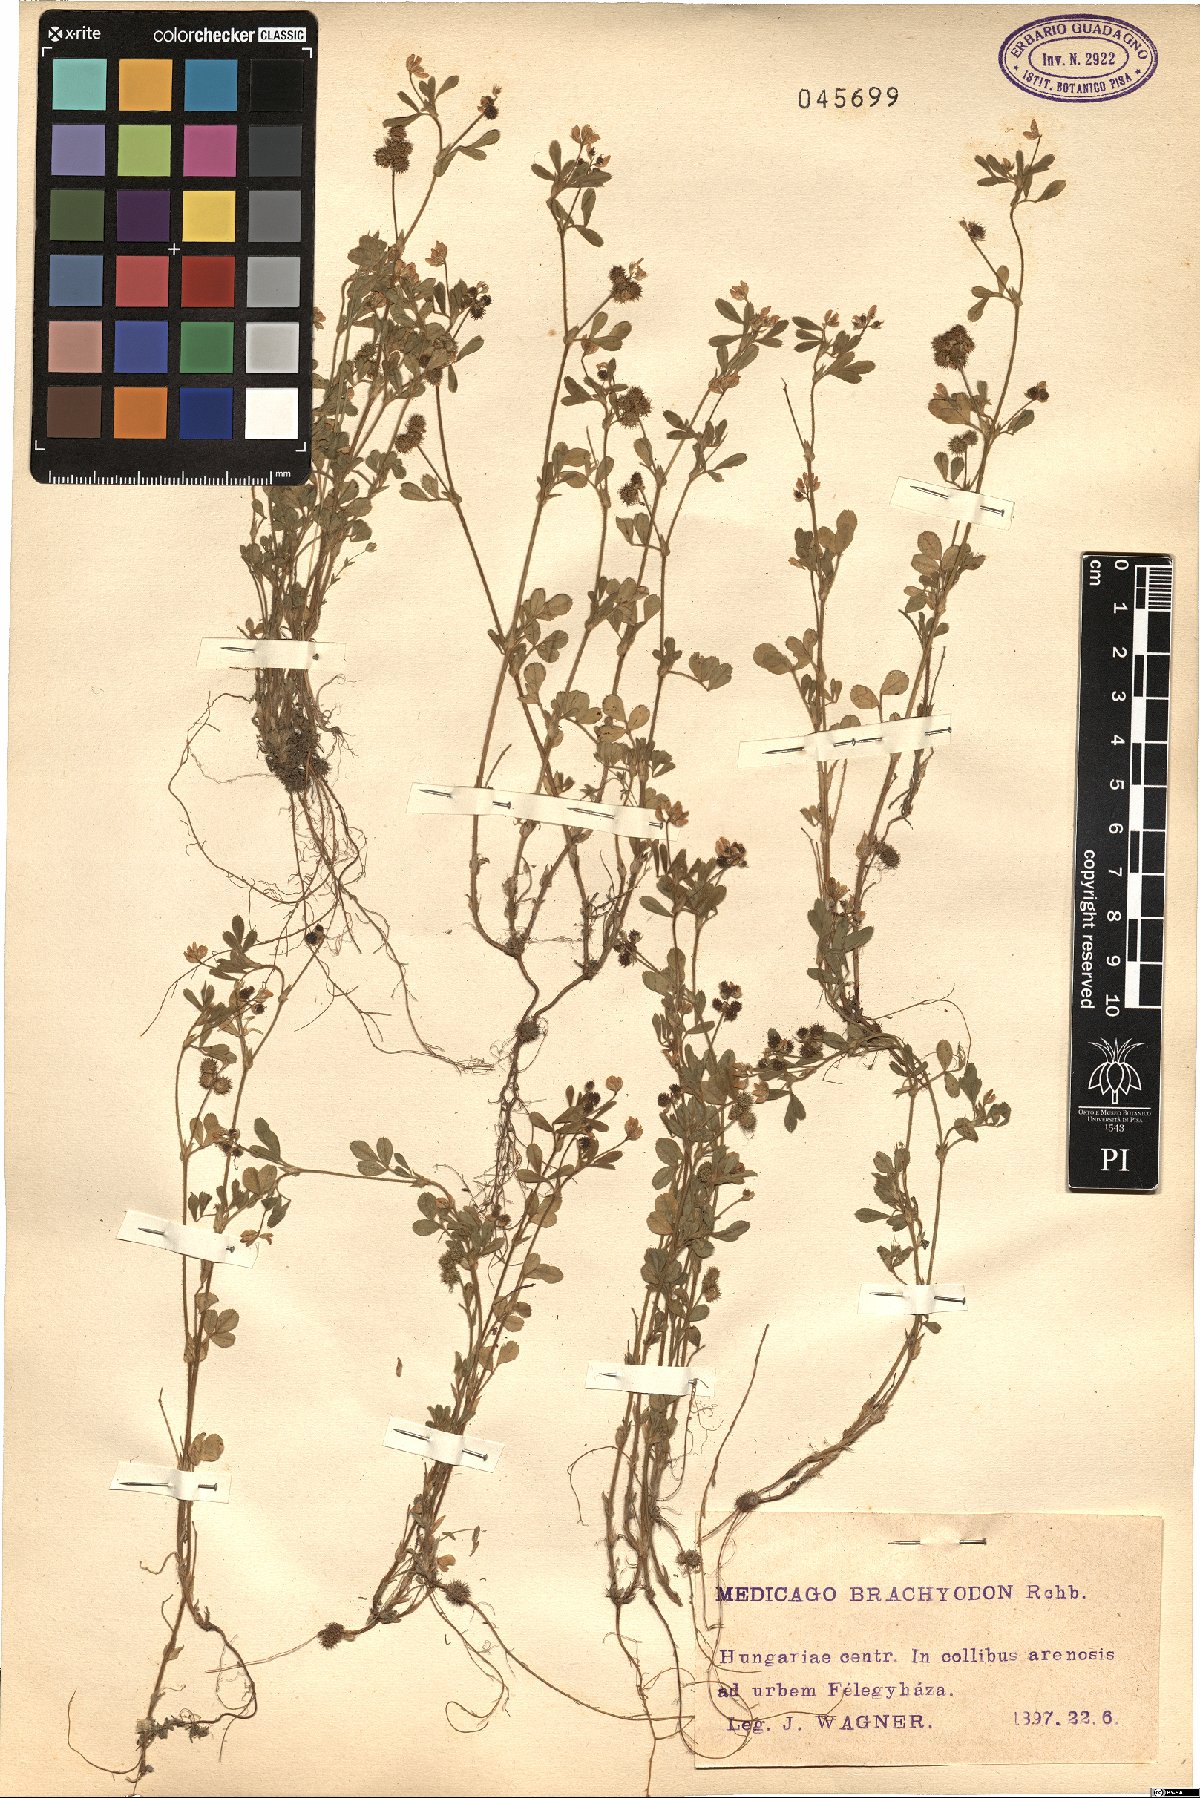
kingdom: Plantae
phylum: Tracheophyta
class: Magnoliopsida
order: Fabales
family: Fabaceae
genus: Medicago
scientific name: Medicago brachycarpa
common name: Short-fruited fenugreek
